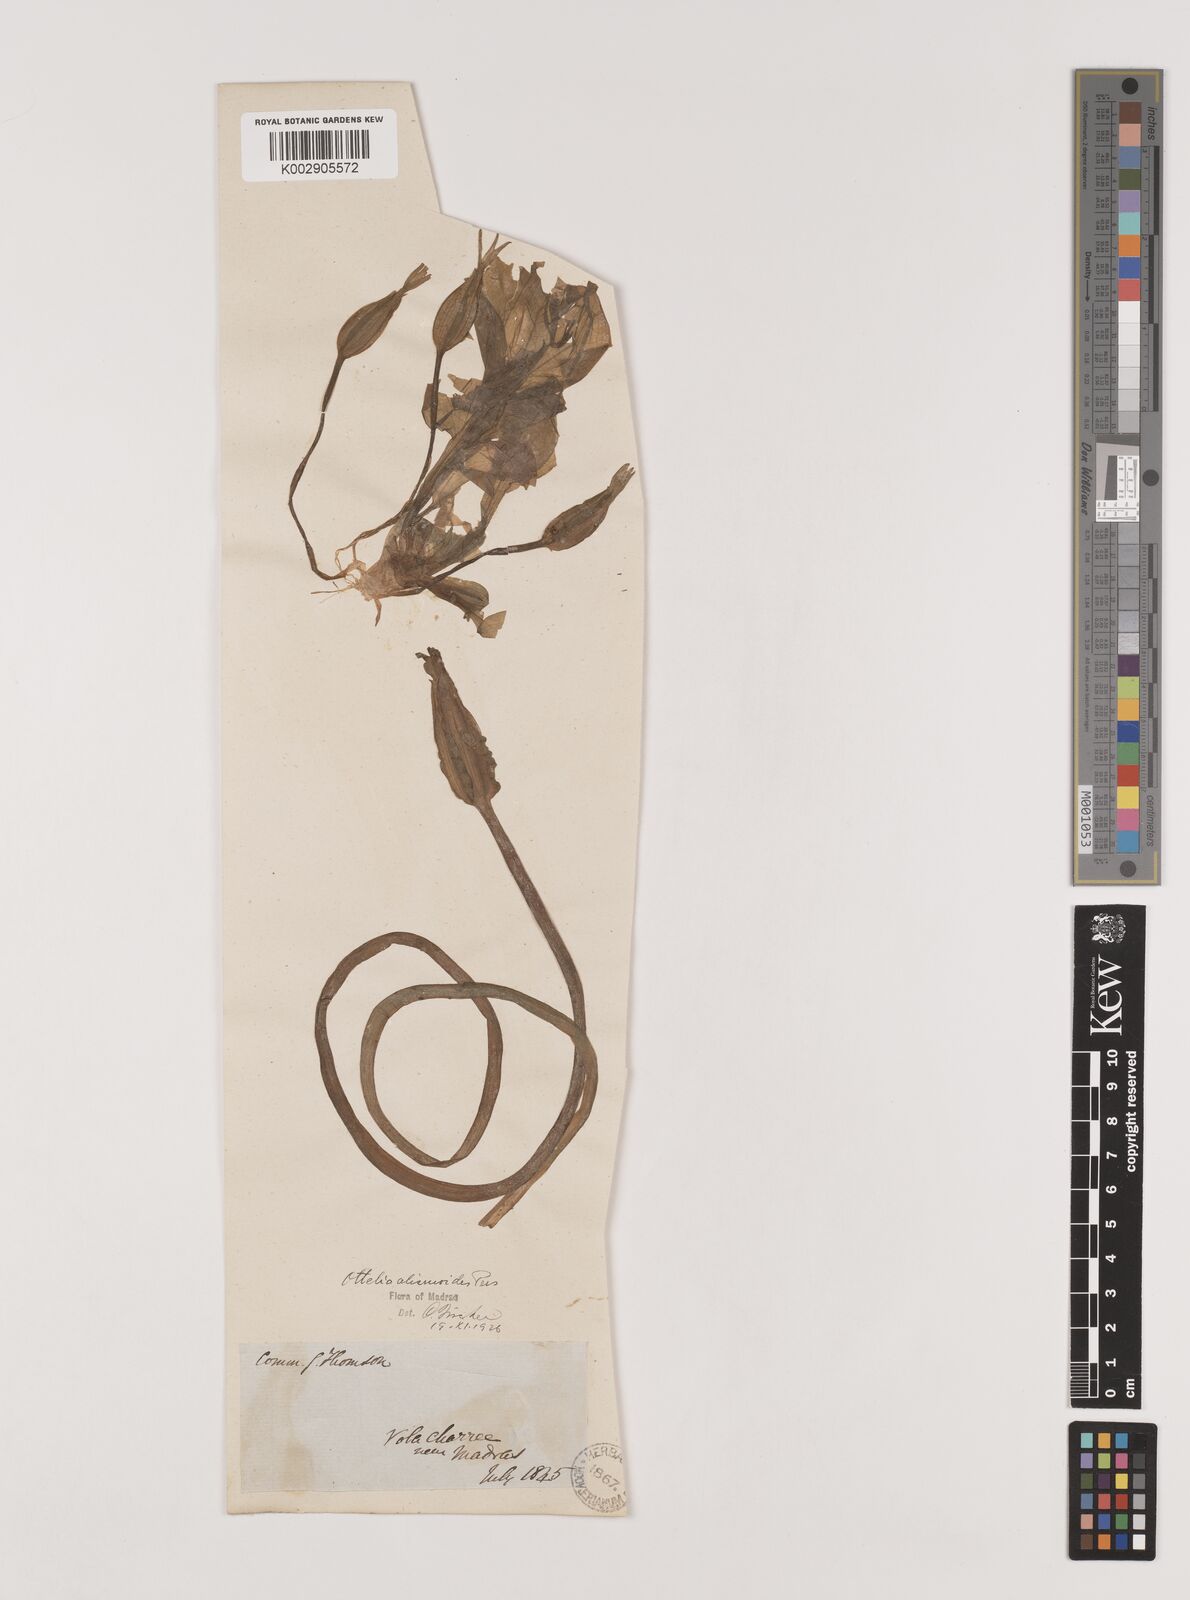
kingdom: Plantae
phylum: Tracheophyta
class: Liliopsida
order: Alismatales
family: Hydrocharitaceae
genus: Ottelia
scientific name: Ottelia alismoides
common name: Duck-lettuce
